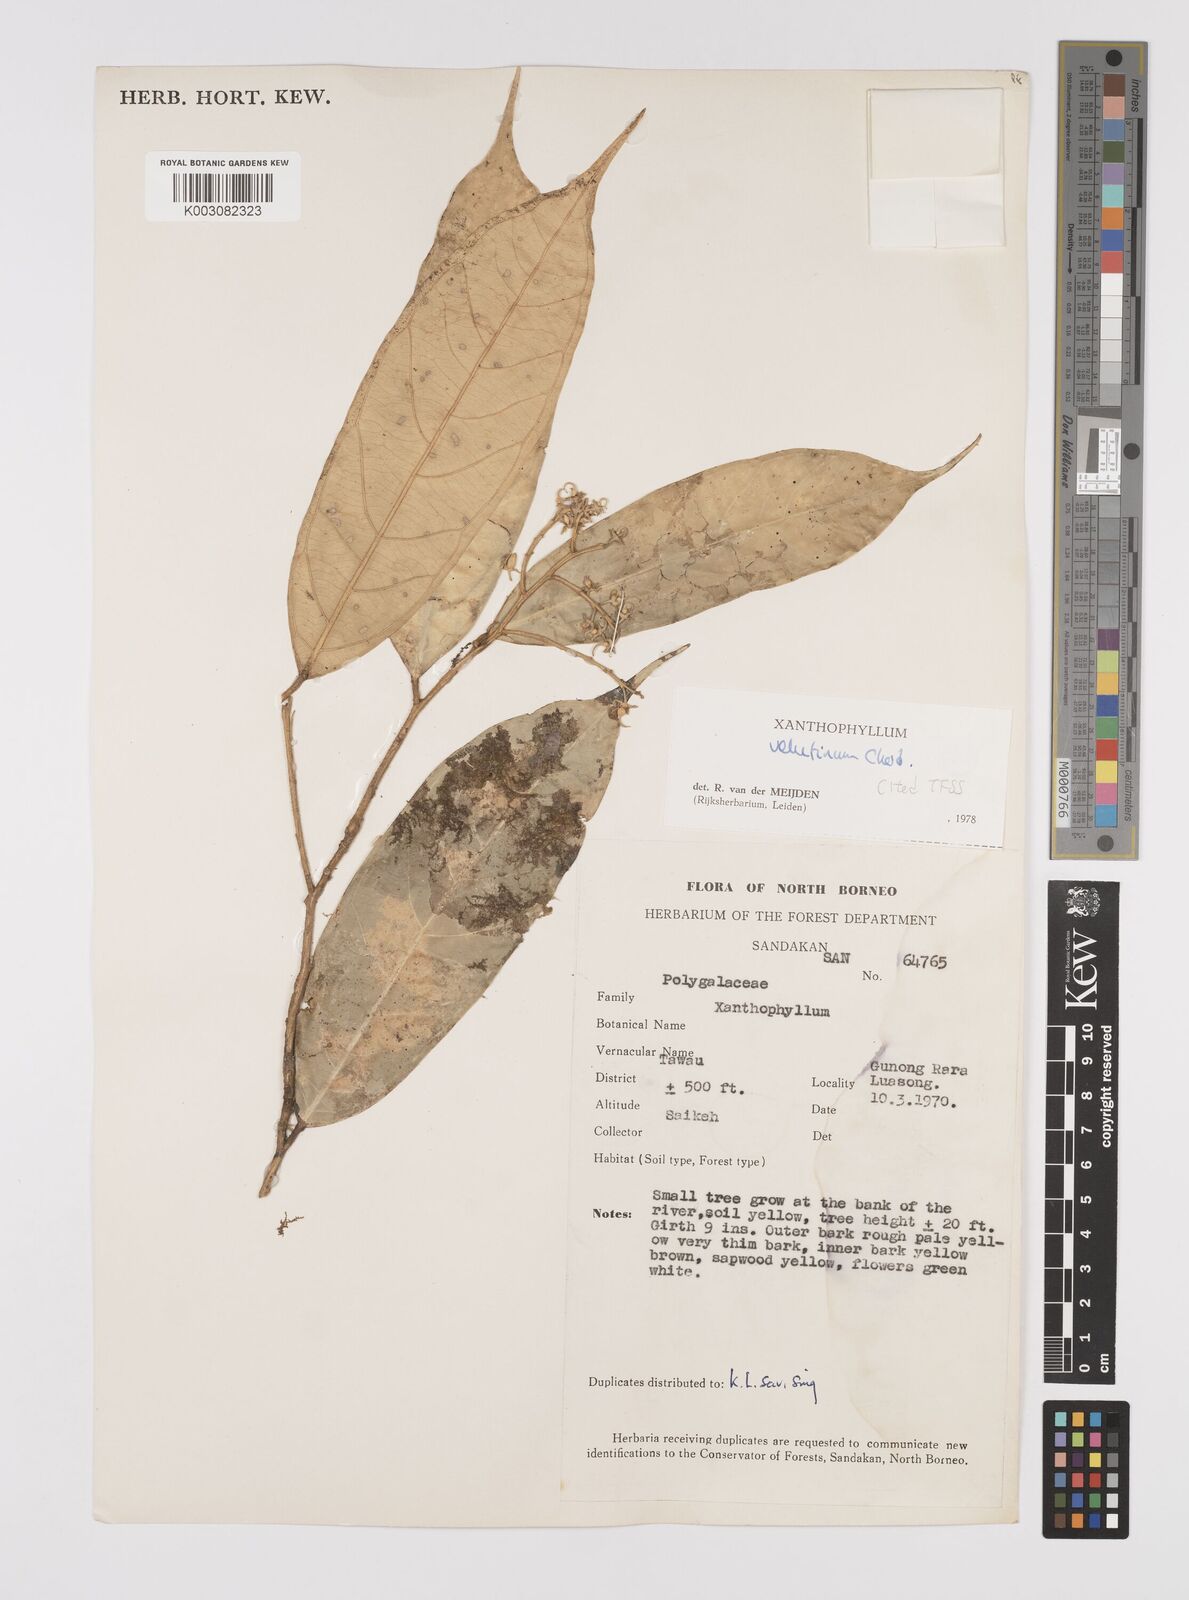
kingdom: Plantae
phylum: Tracheophyta
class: Magnoliopsida
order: Fabales
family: Polygalaceae
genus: Xanthophyllum
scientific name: Xanthophyllum velutinum
